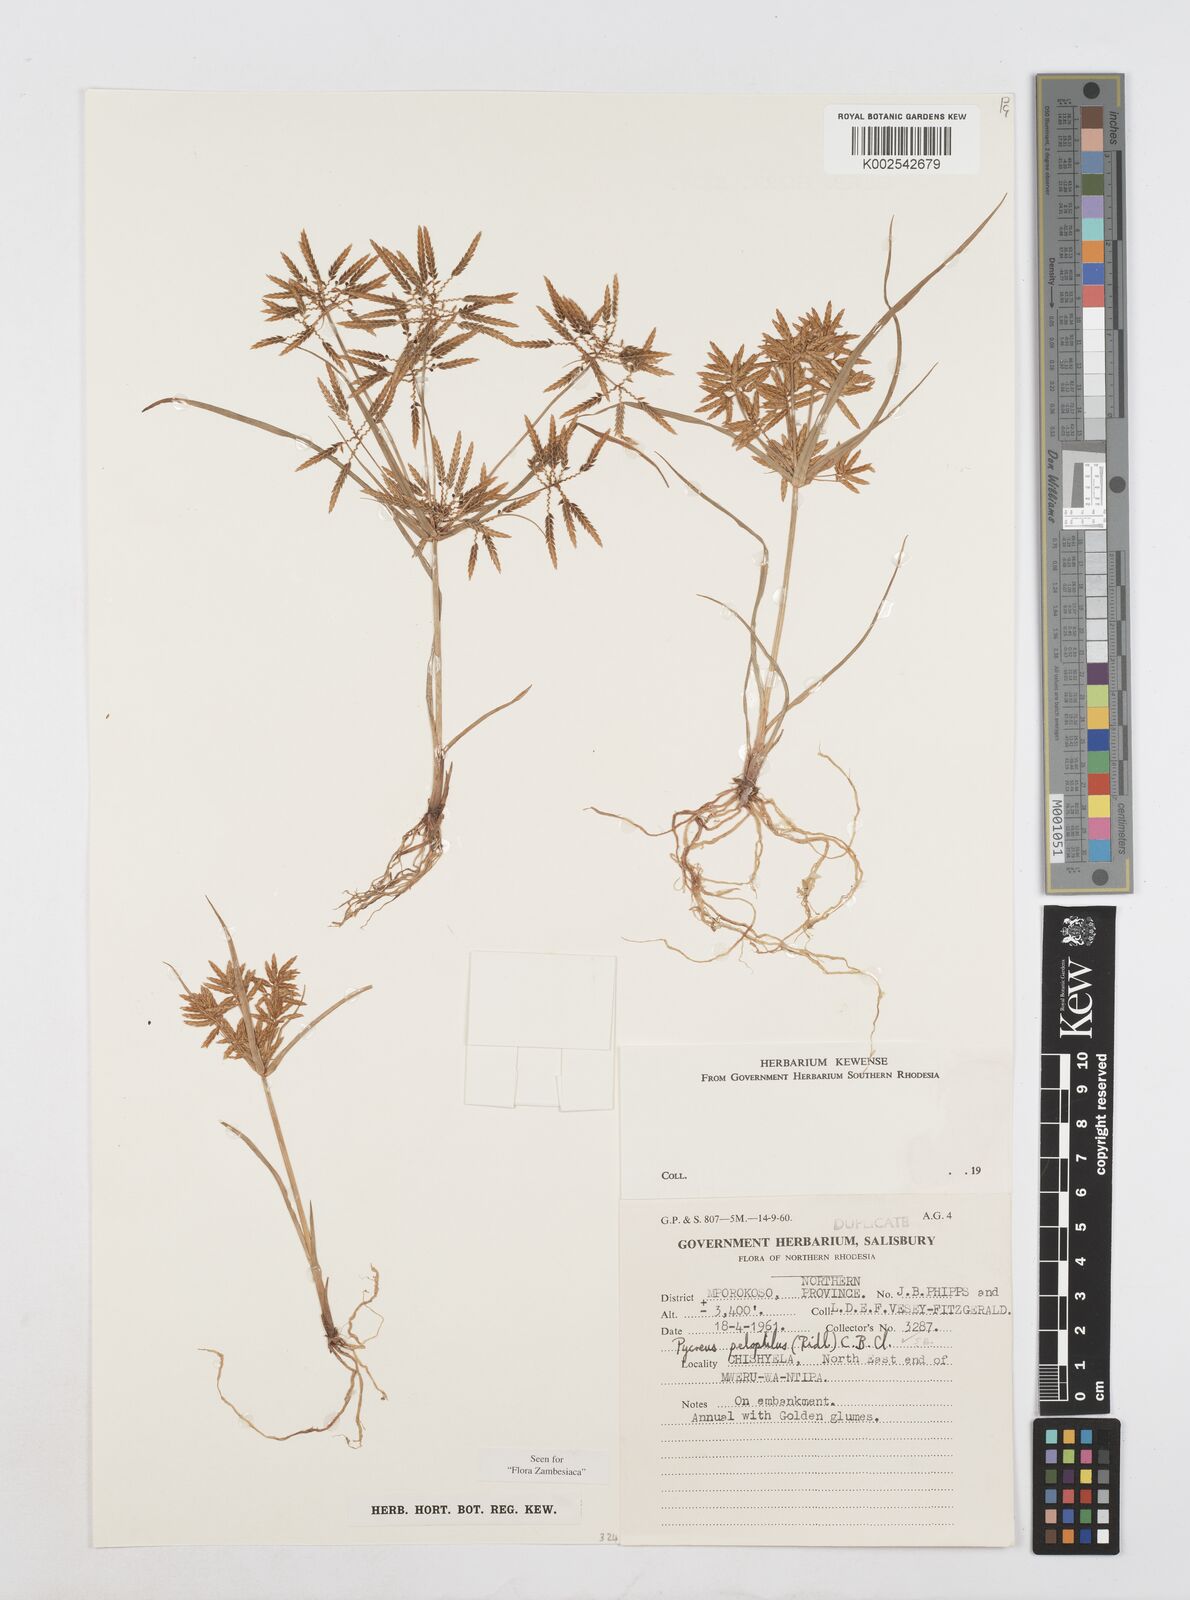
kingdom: Plantae
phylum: Tracheophyta
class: Liliopsida
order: Poales
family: Cyperaceae
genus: Cyperus
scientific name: Cyperus pelophilus
